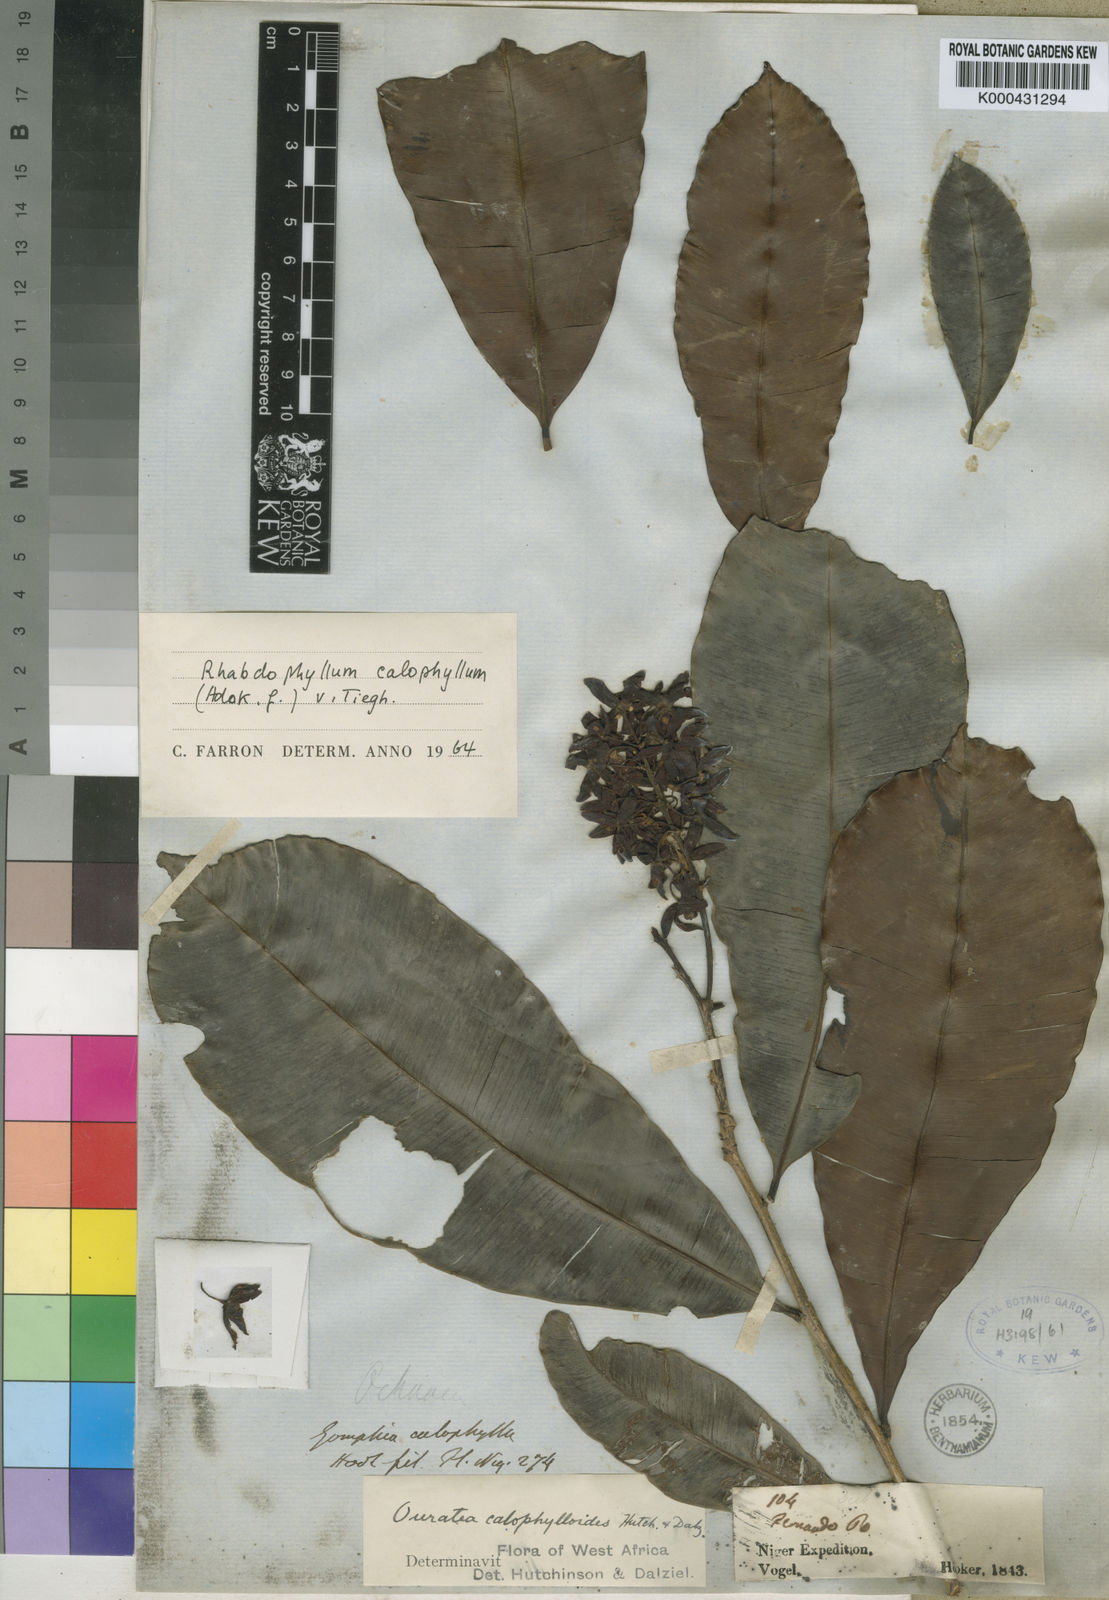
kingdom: Plantae
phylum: Tracheophyta
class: Magnoliopsida
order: Malpighiales
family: Ochnaceae
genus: Rhabdophyllum
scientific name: Rhabdophyllum calophyllum
